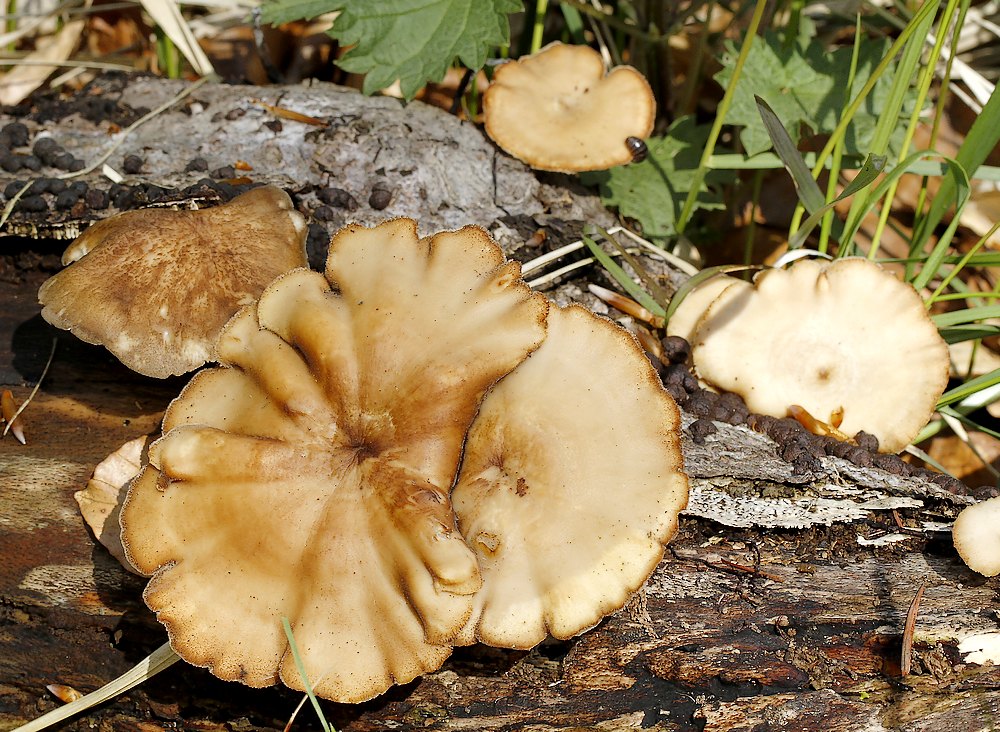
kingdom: Fungi
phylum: Basidiomycota
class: Agaricomycetes
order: Polyporales
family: Polyporaceae
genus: Lentinus
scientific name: Lentinus brumalis
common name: vinter-stilkporesvamp
